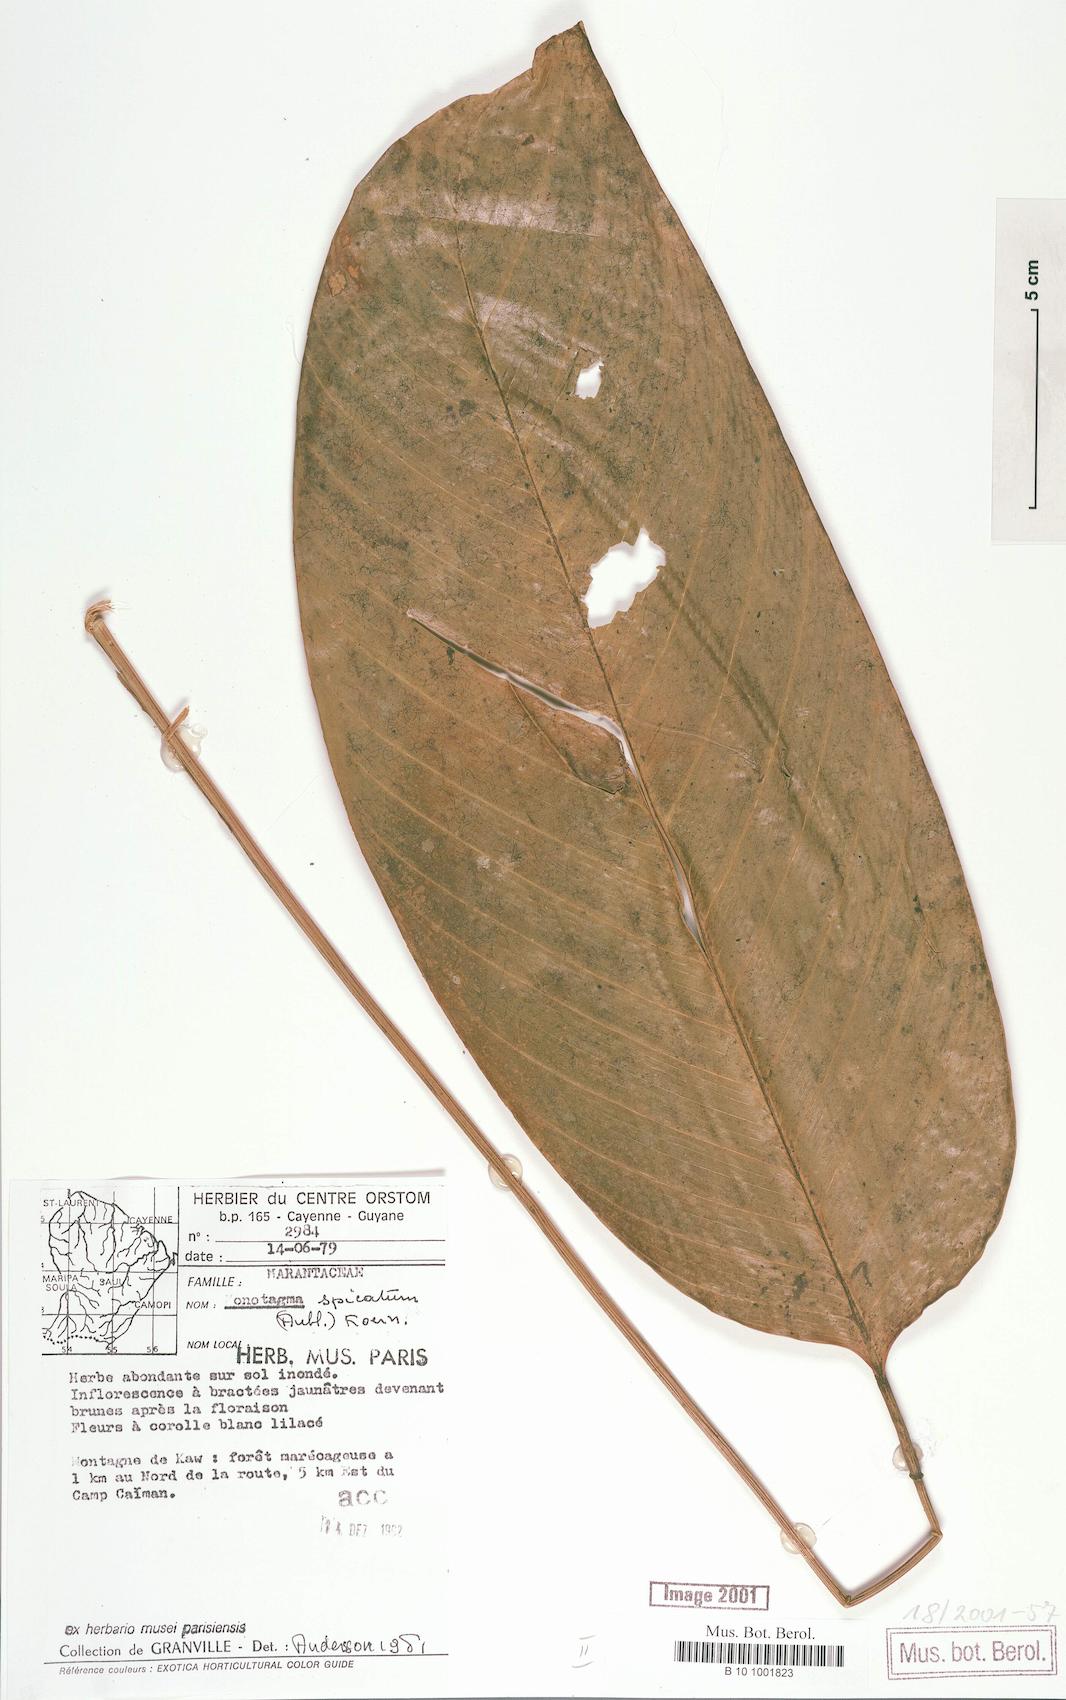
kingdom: Plantae
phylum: Tracheophyta
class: Liliopsida
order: Zingiberales
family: Marantaceae
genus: Monotagma
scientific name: Monotagma spicatum
